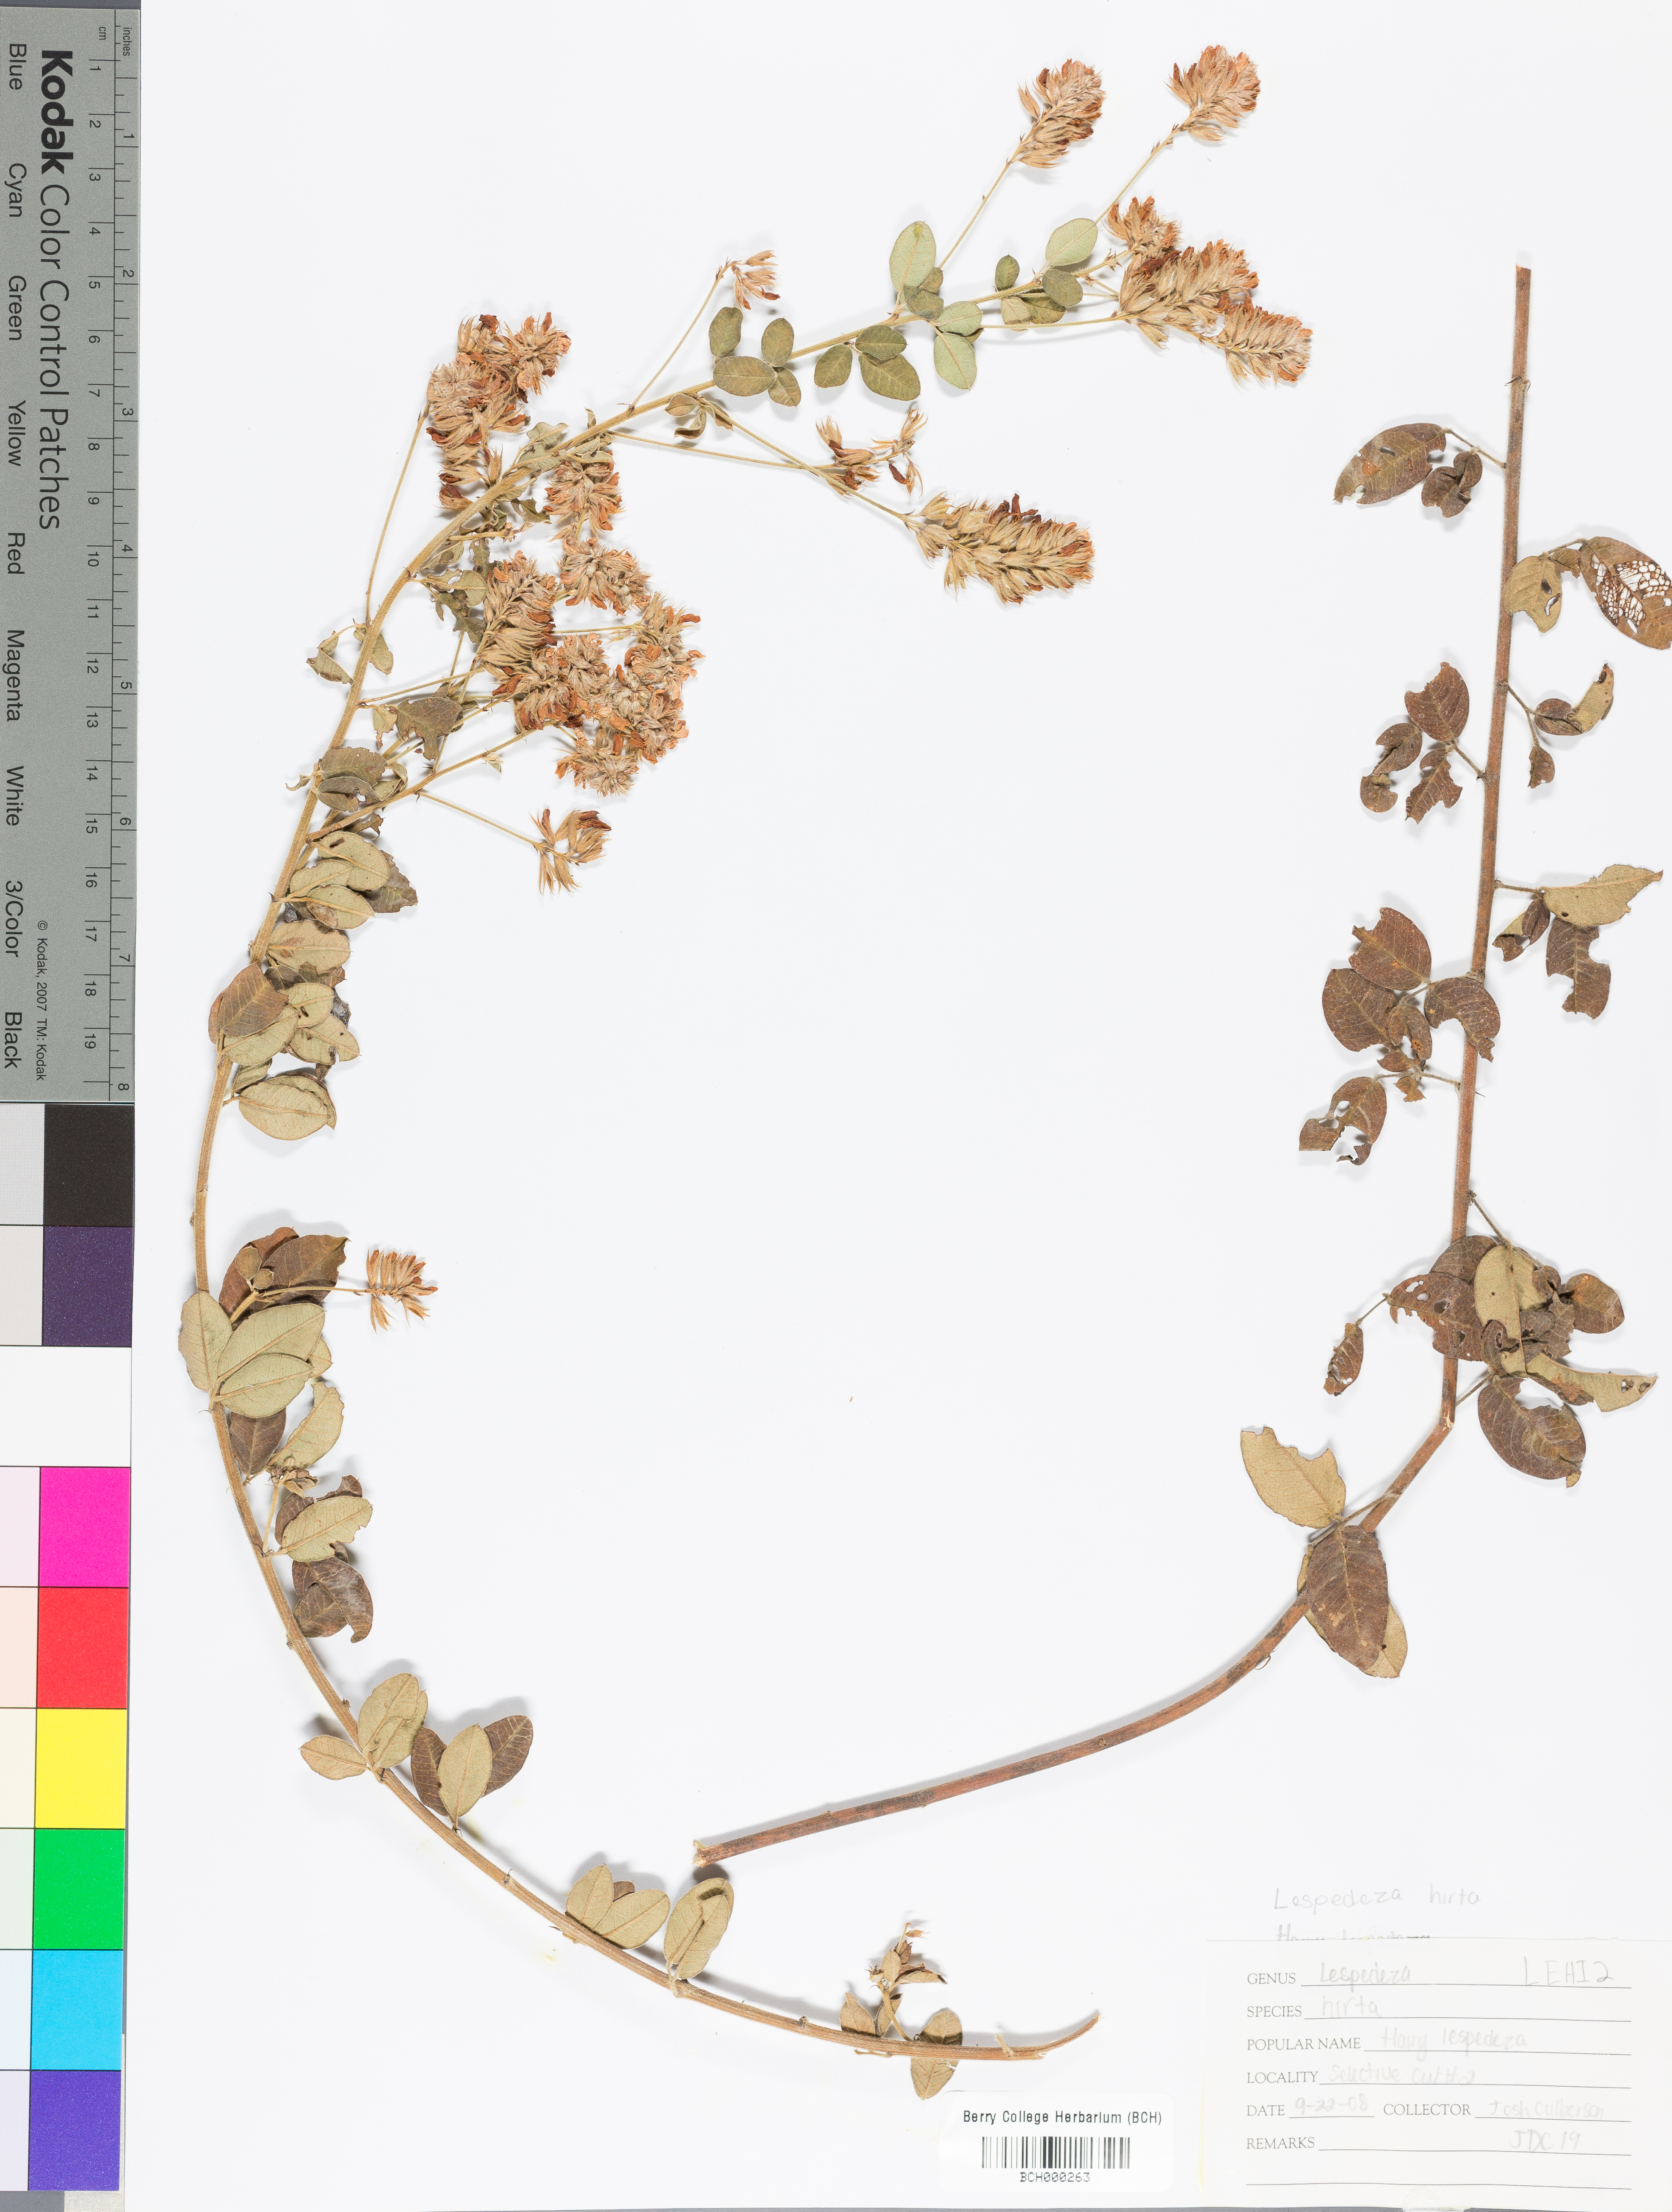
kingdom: Plantae
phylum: Tracheophyta
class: Magnoliopsida
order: Fabales
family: Fabaceae
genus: Lespedeza
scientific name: Lespedeza hirta
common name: Hairy lespedeza
